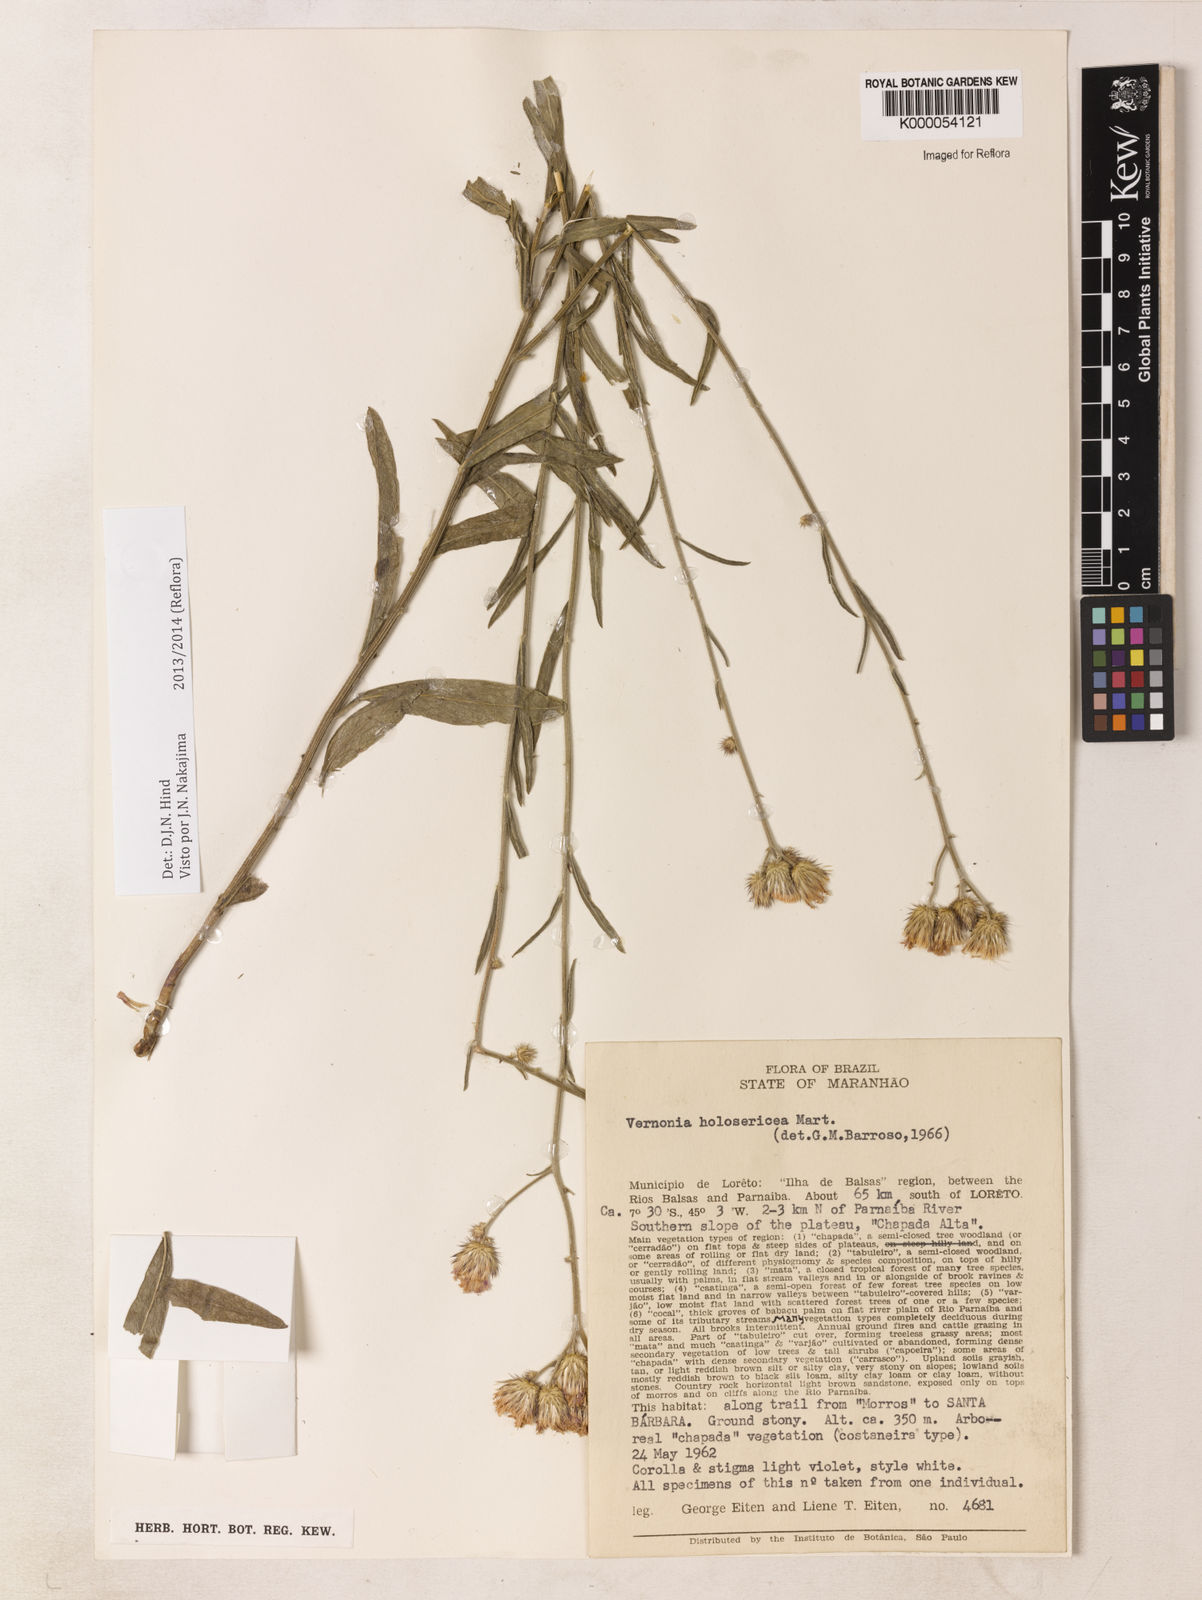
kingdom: Plantae
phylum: Tracheophyta
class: Magnoliopsida
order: Asterales
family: Asteraceae
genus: Echinocoryne
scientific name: Echinocoryne holosericea
